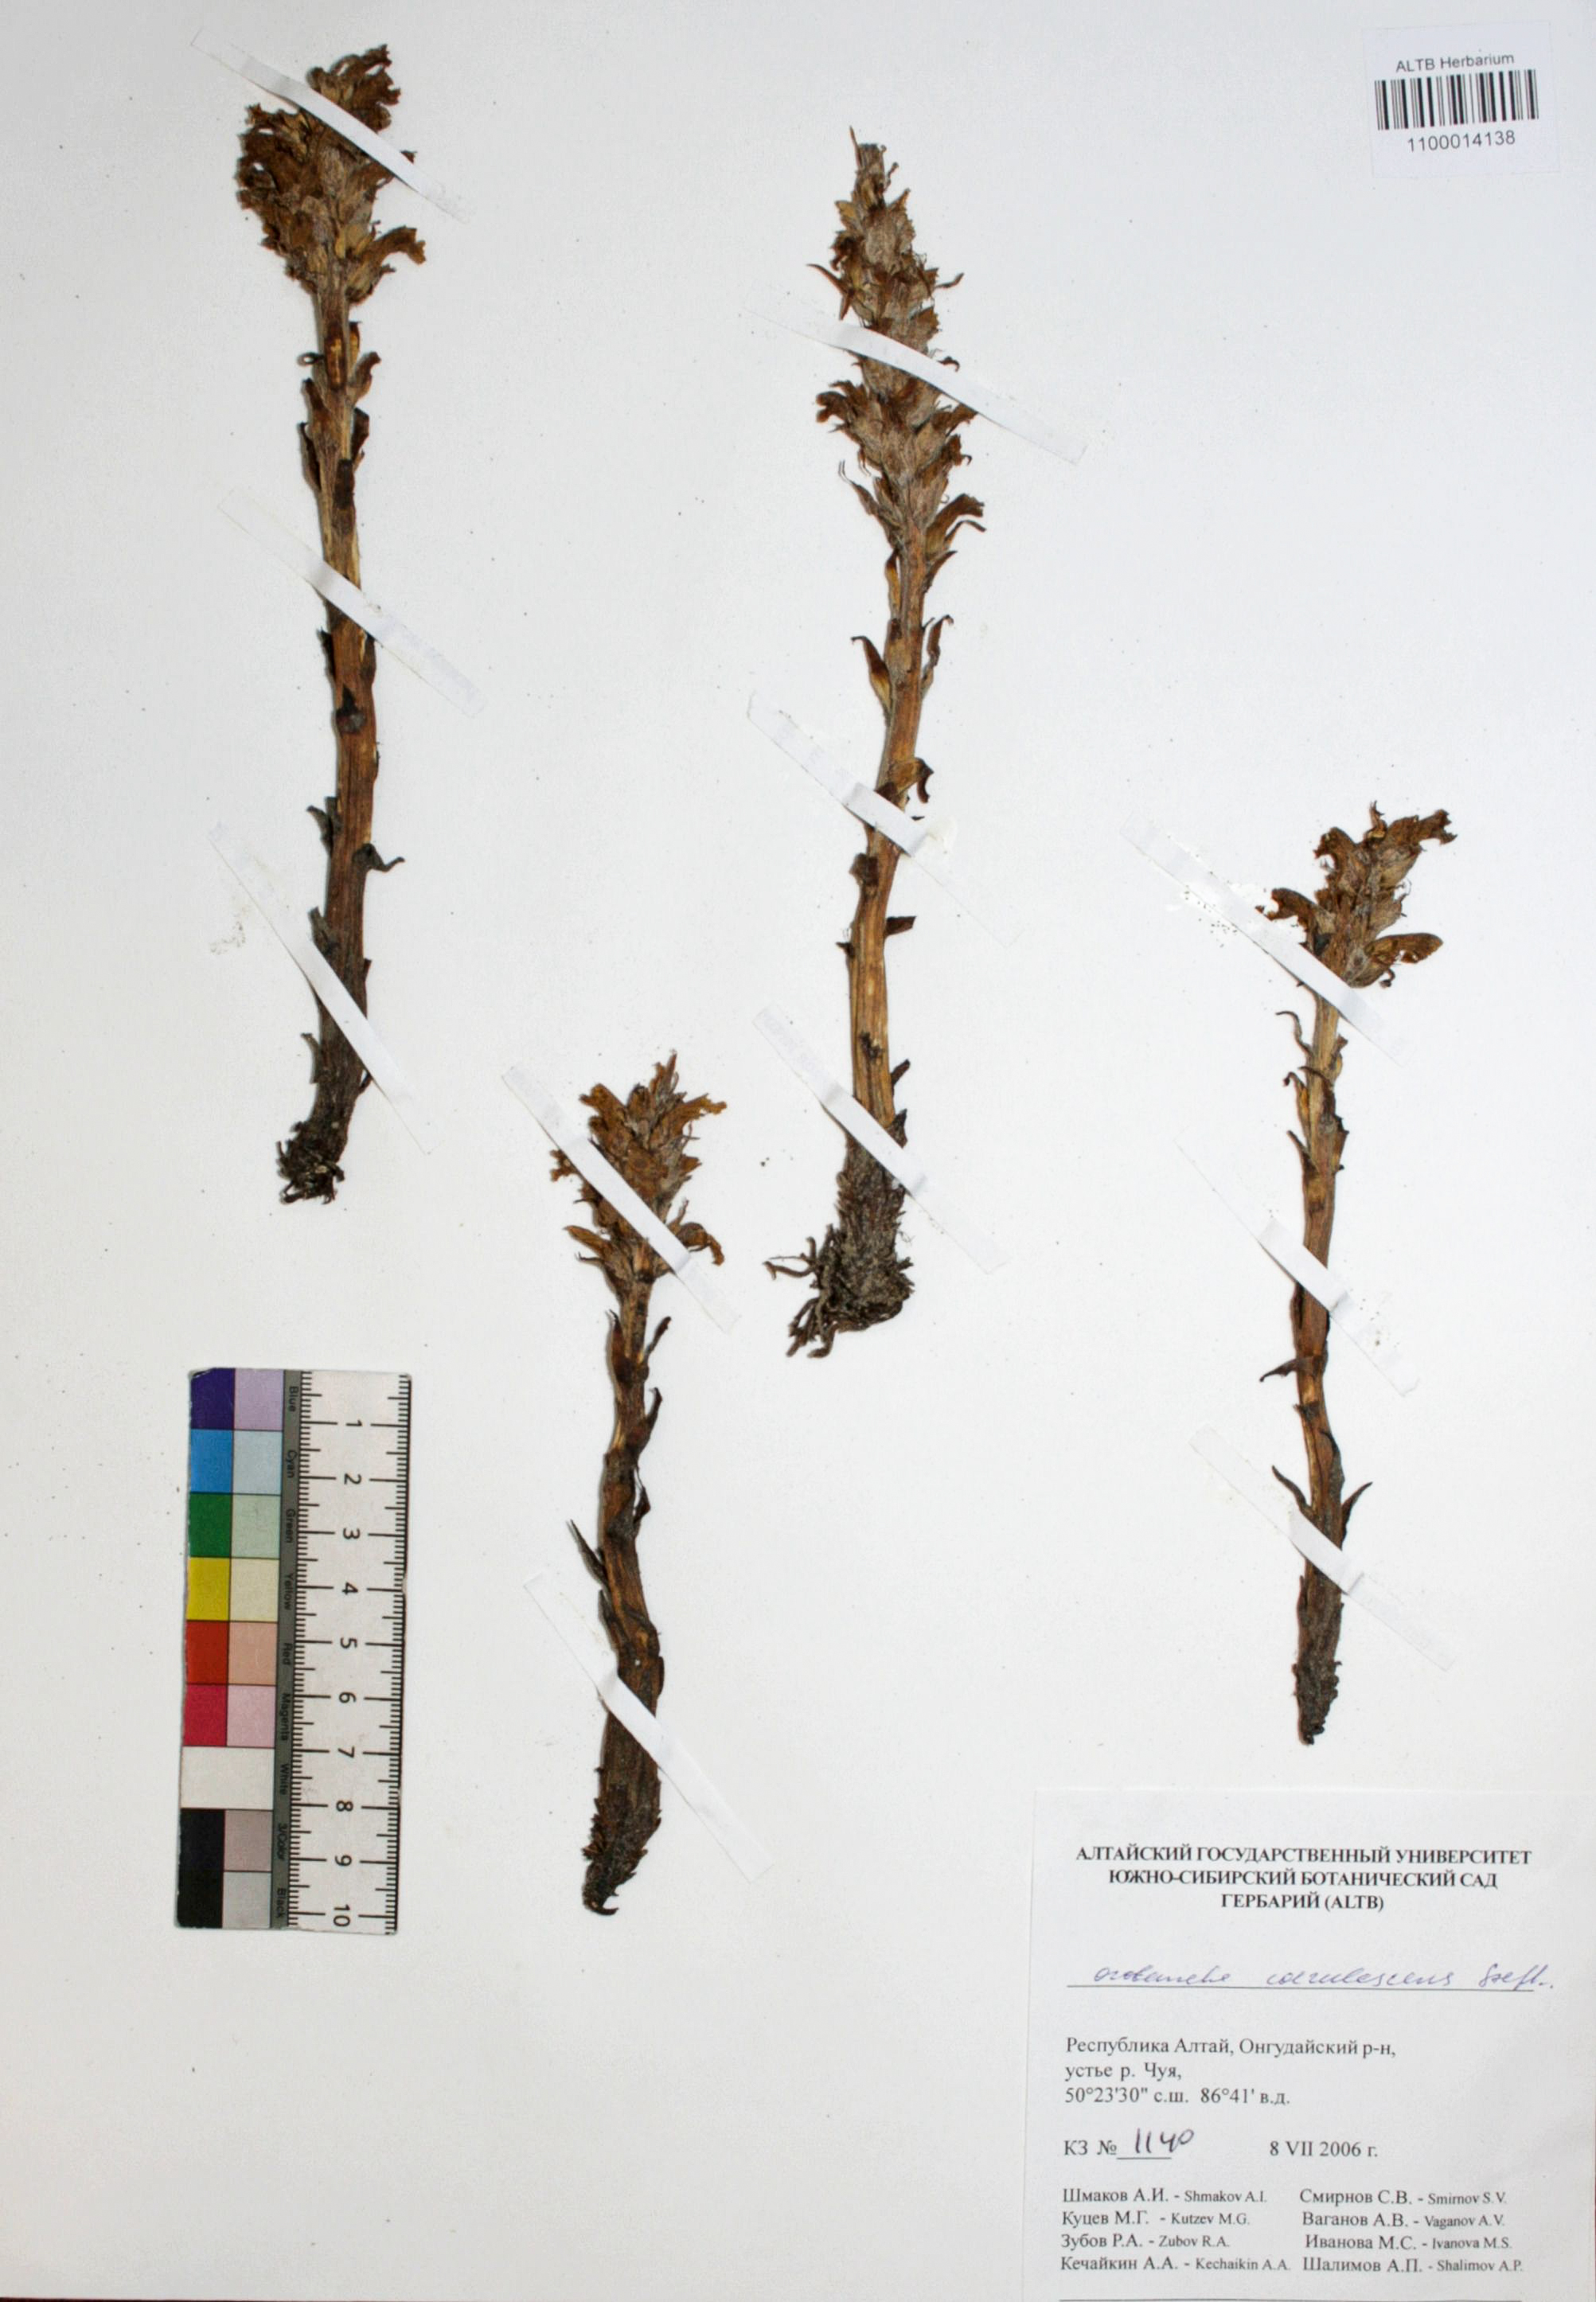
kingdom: Plantae
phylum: Tracheophyta
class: Magnoliopsida
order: Lamiales
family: Orobanchaceae
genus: Orobanche
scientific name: Orobanche coerulescens
